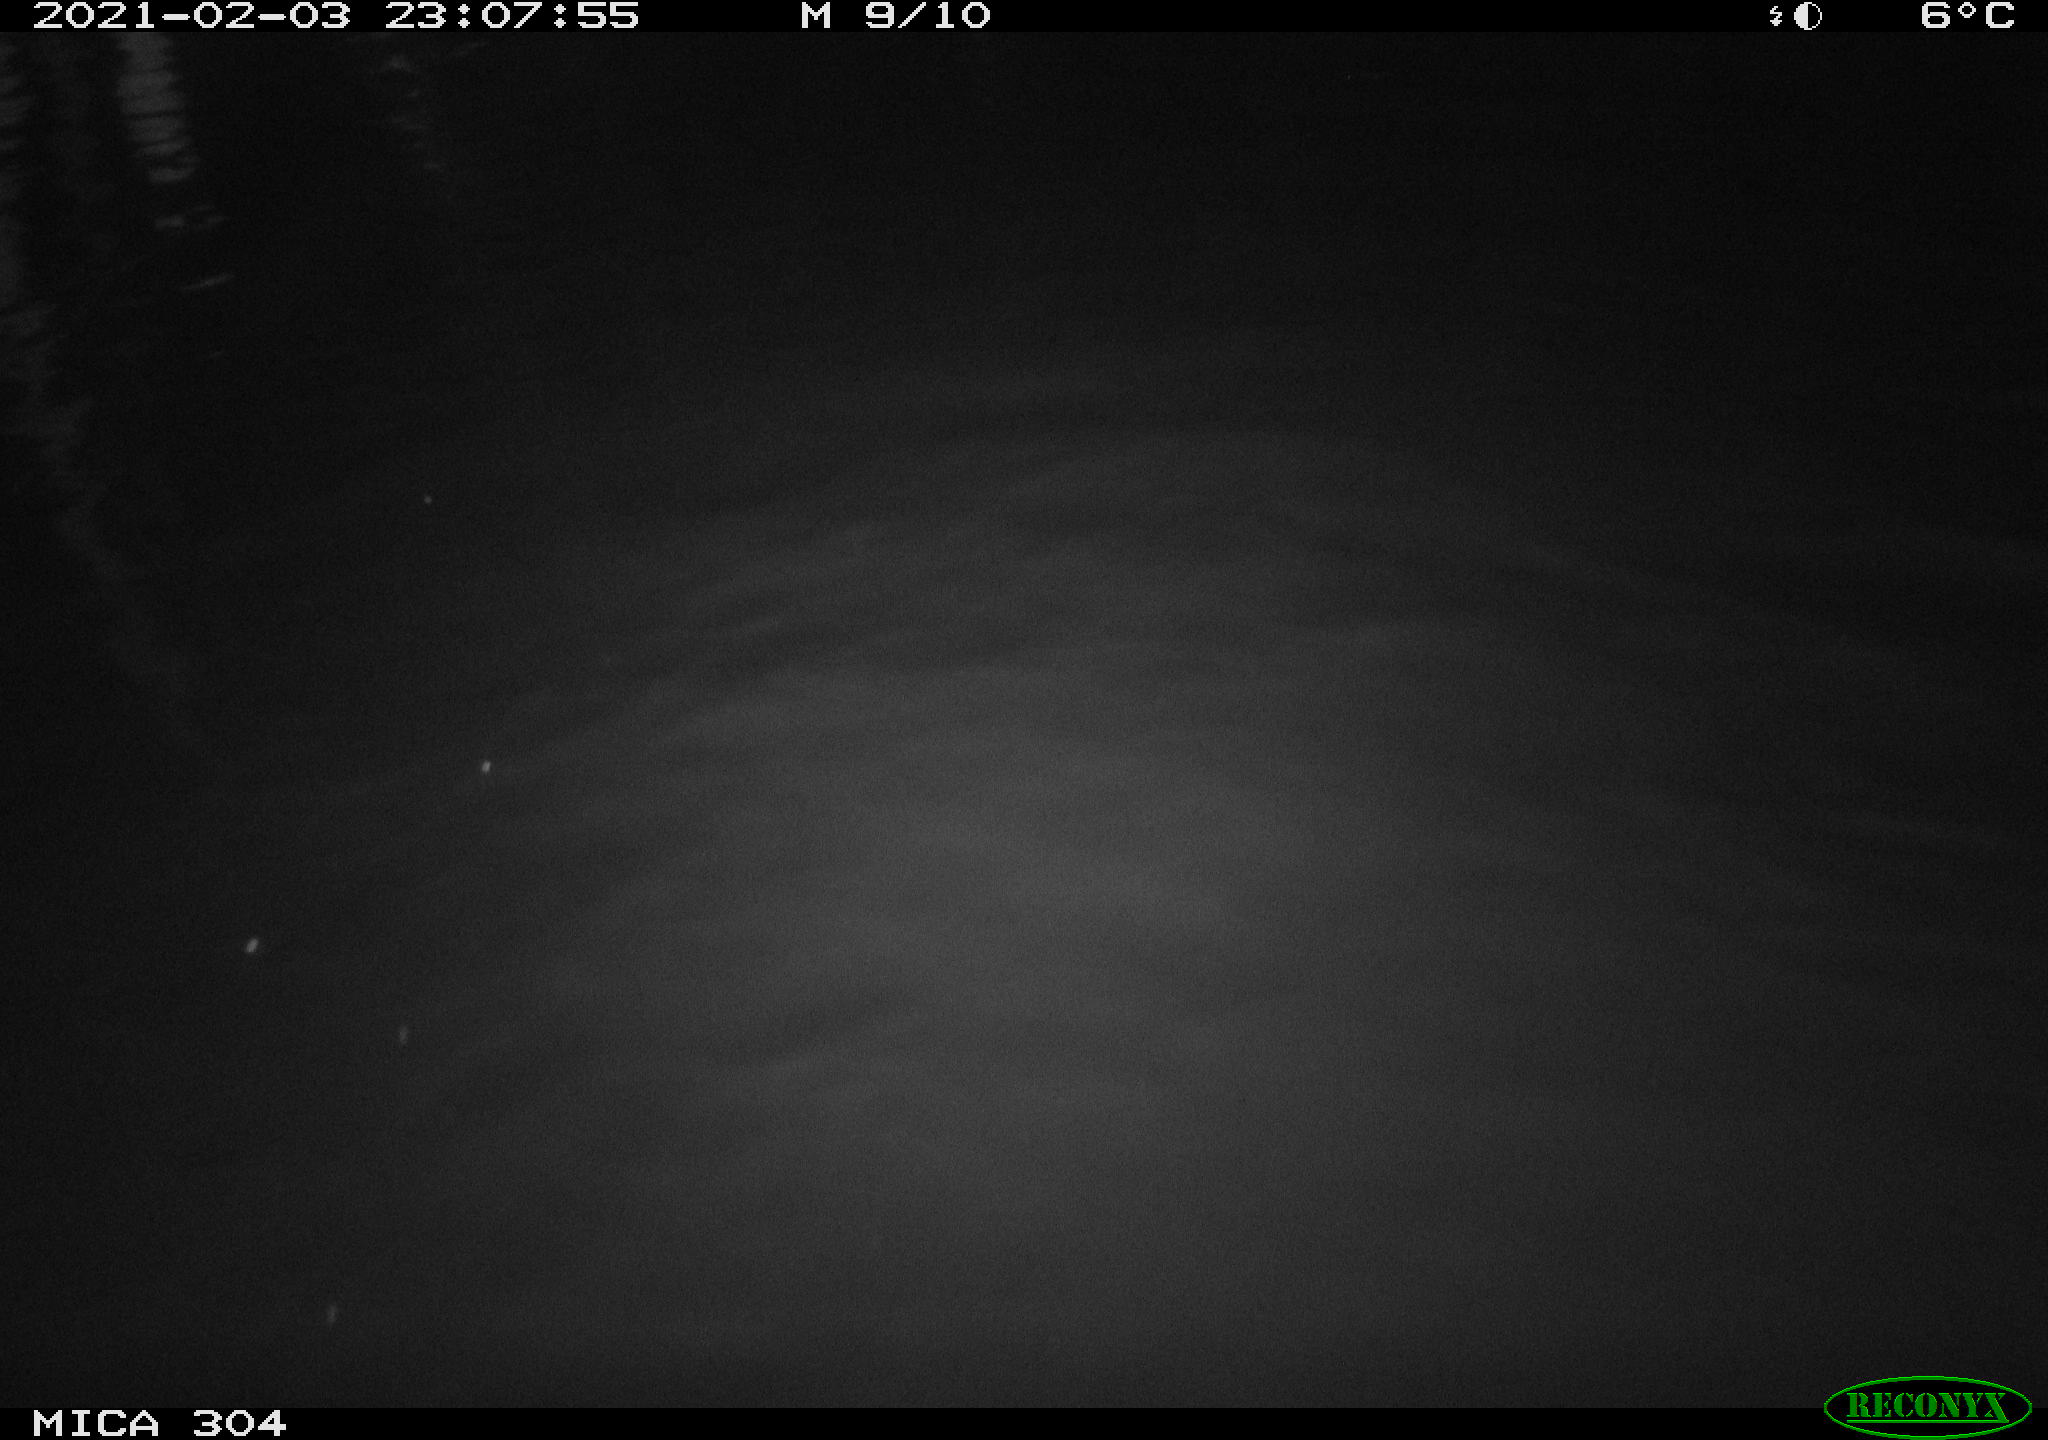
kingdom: Animalia
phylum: Chordata
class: Mammalia
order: Rodentia
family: Cricetidae
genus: Ondatra
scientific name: Ondatra zibethicus
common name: Muskrat
